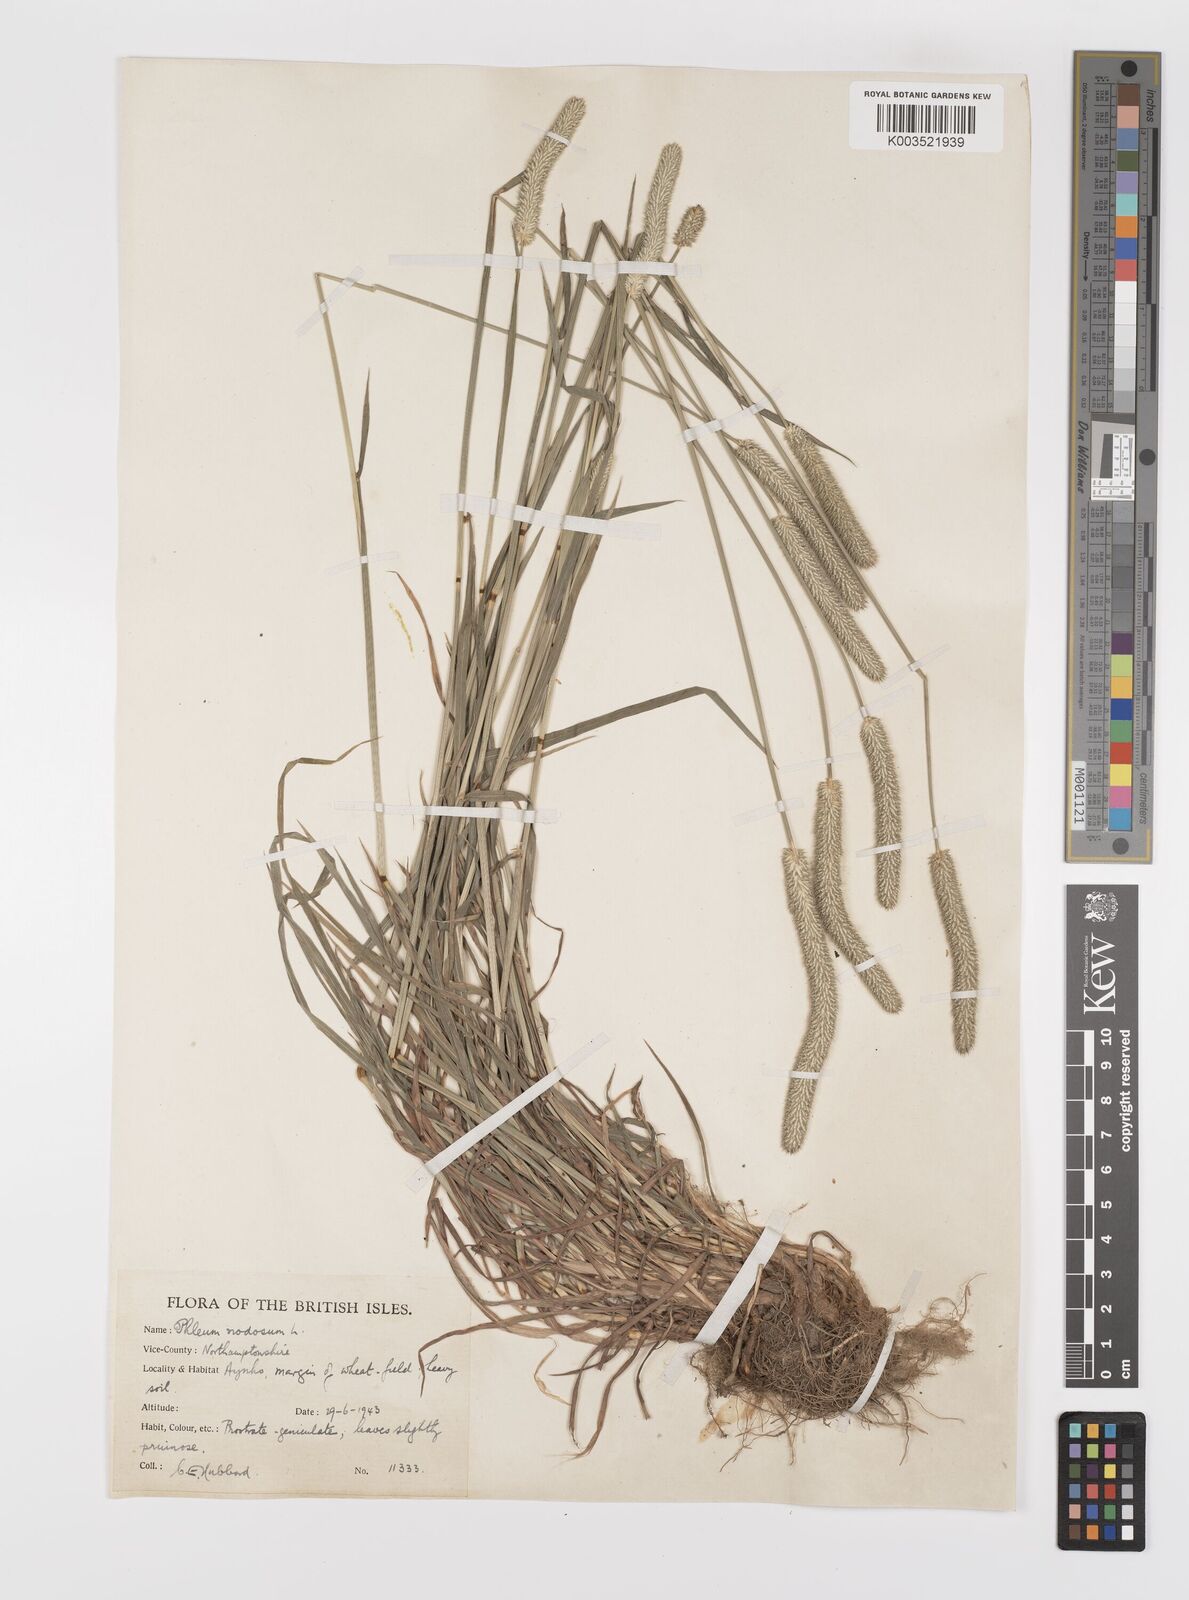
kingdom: Plantae
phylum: Tracheophyta
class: Liliopsida
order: Poales
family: Poaceae
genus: Phleum
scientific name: Phleum bertolonii
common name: Smaller cat's-tail
